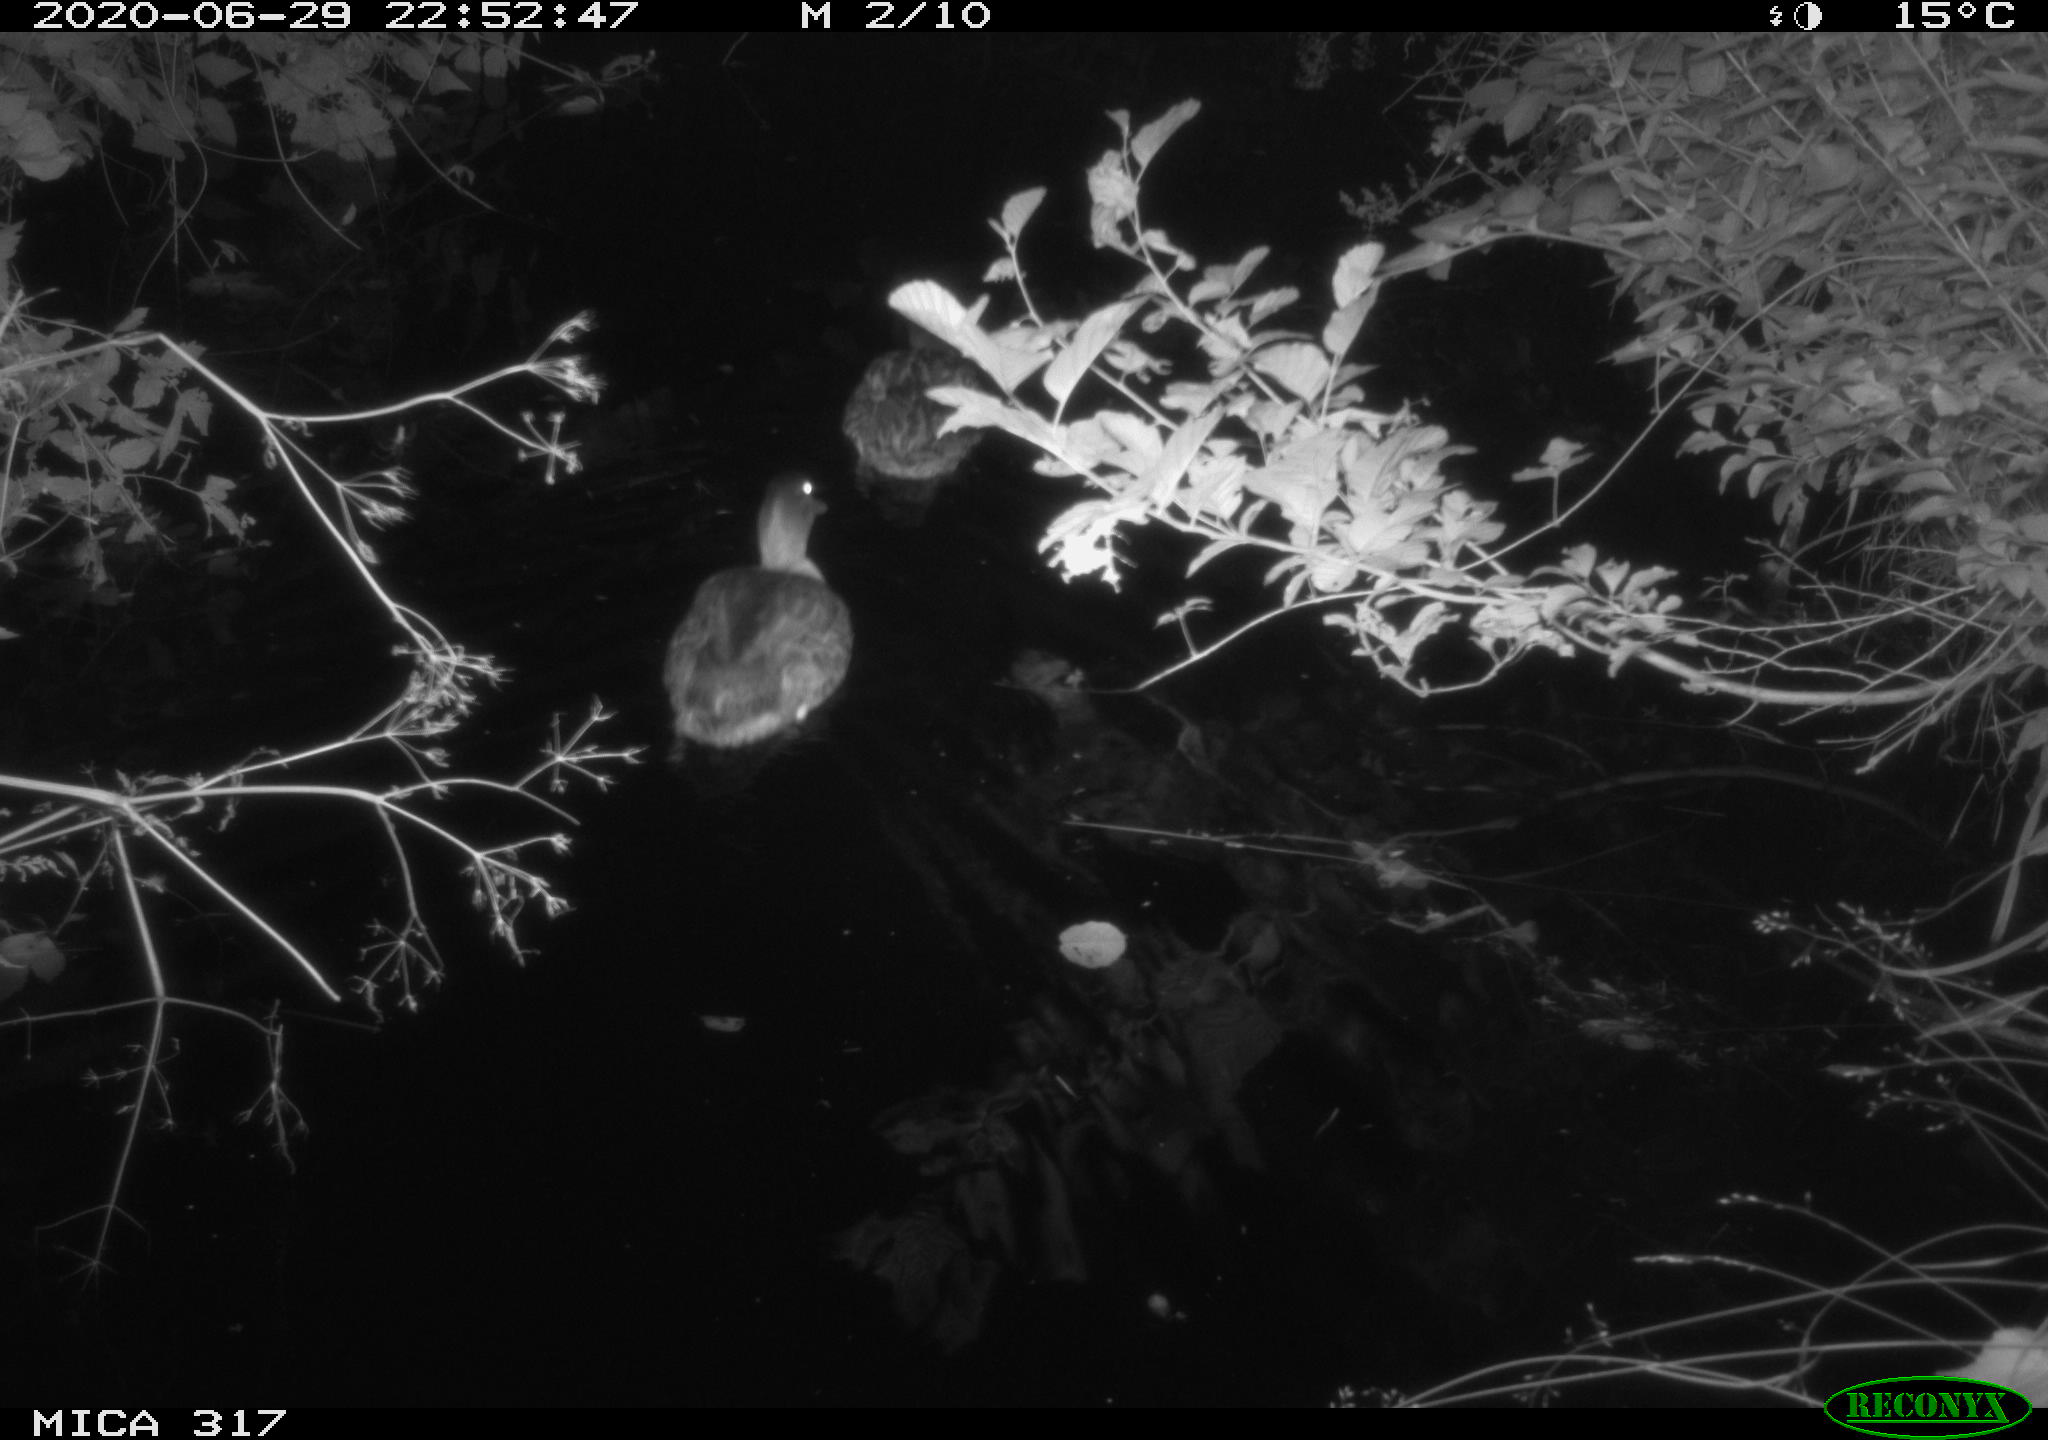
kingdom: Animalia
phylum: Chordata
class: Aves
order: Anseriformes
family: Anatidae
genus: Anas
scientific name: Anas platyrhynchos
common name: Mallard
